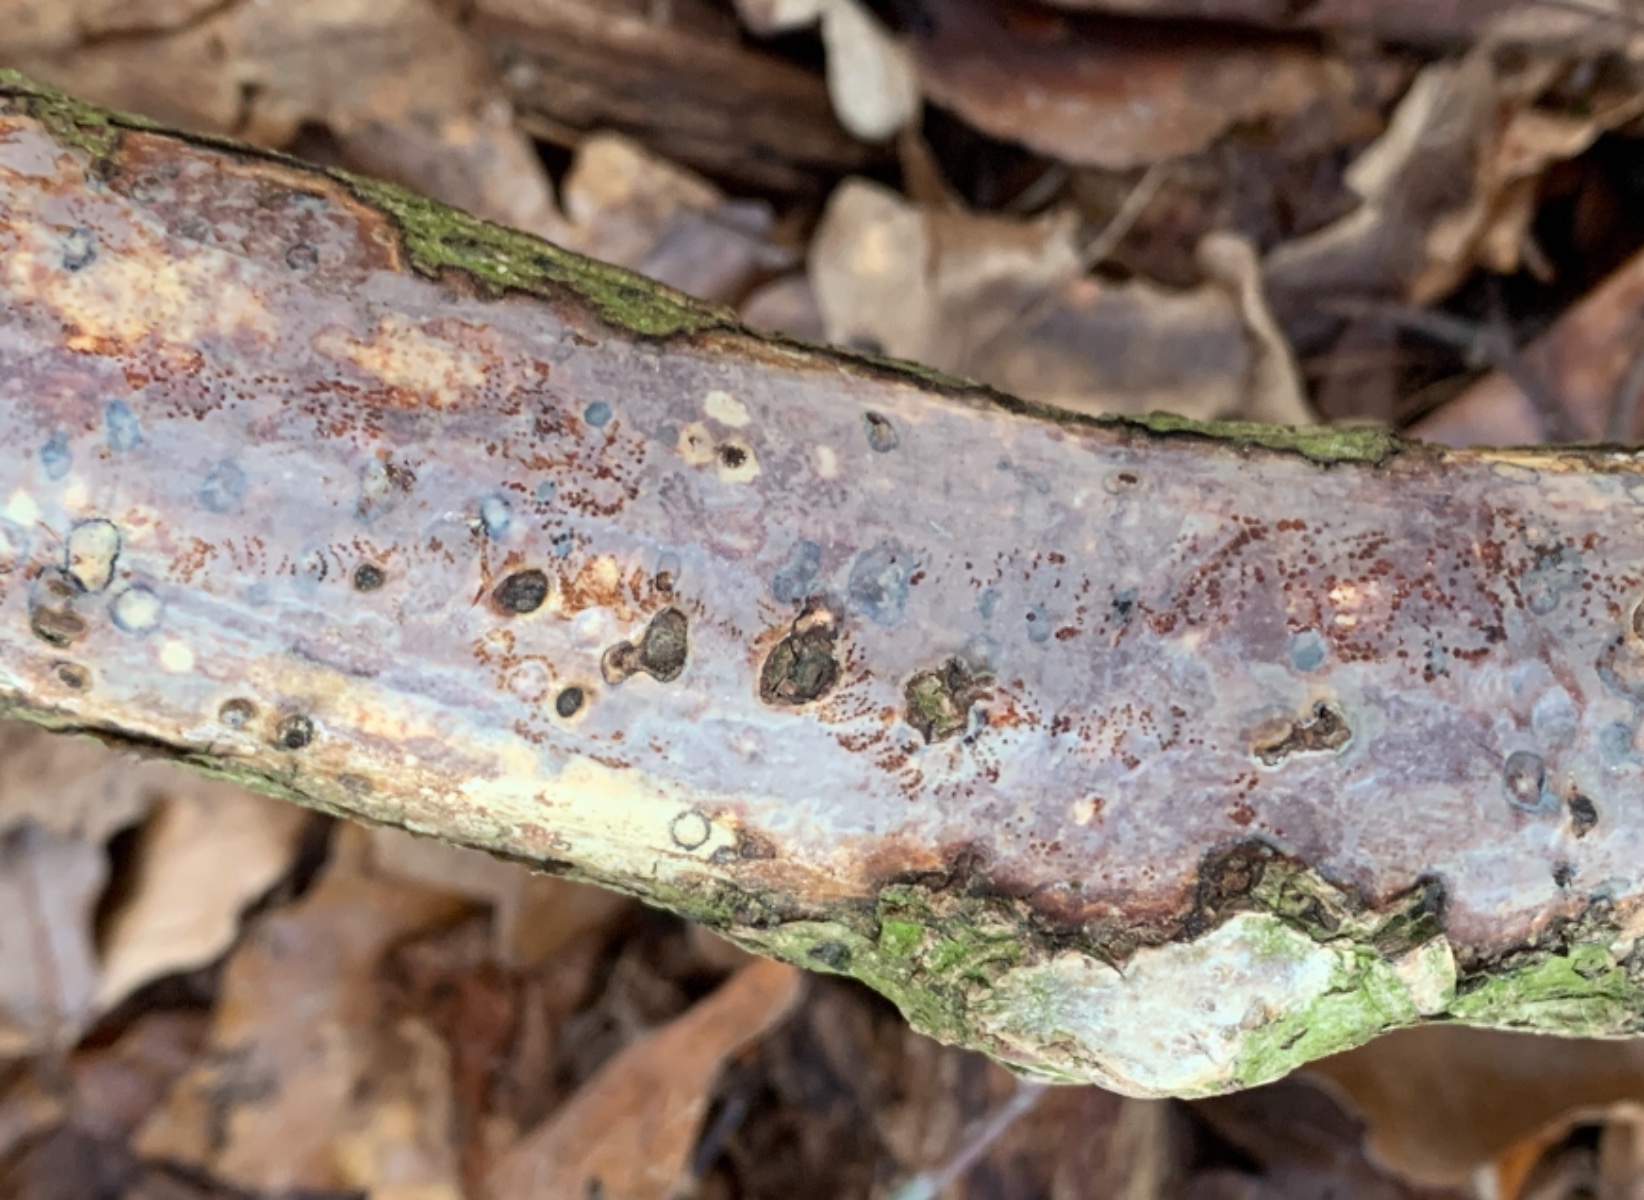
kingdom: Fungi
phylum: Basidiomycota
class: Agaricomycetes
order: Corticiales
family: Vuilleminiaceae
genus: Vuilleminia
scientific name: Vuilleminia coryli
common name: hassel-barksprænger
